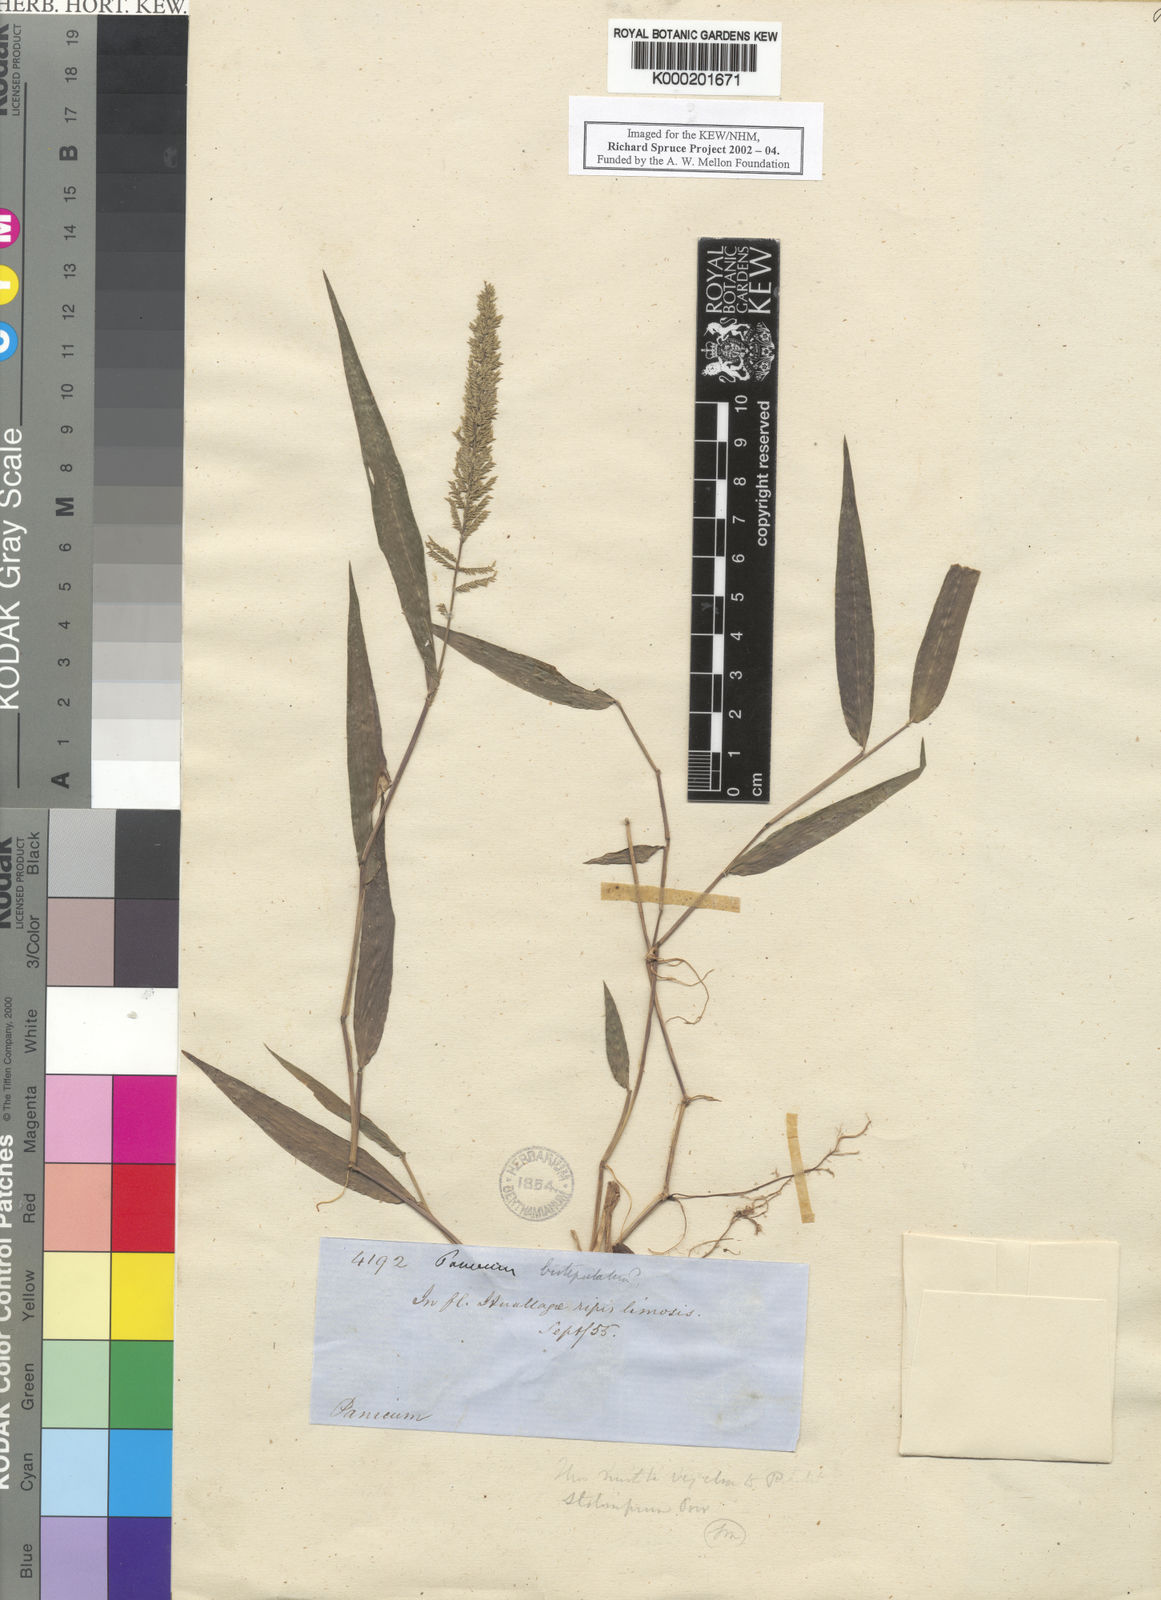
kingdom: Plantae
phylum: Tracheophyta
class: Liliopsida
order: Poales
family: Poaceae
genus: Ocellochloa
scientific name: Ocellochloa stolonifera
